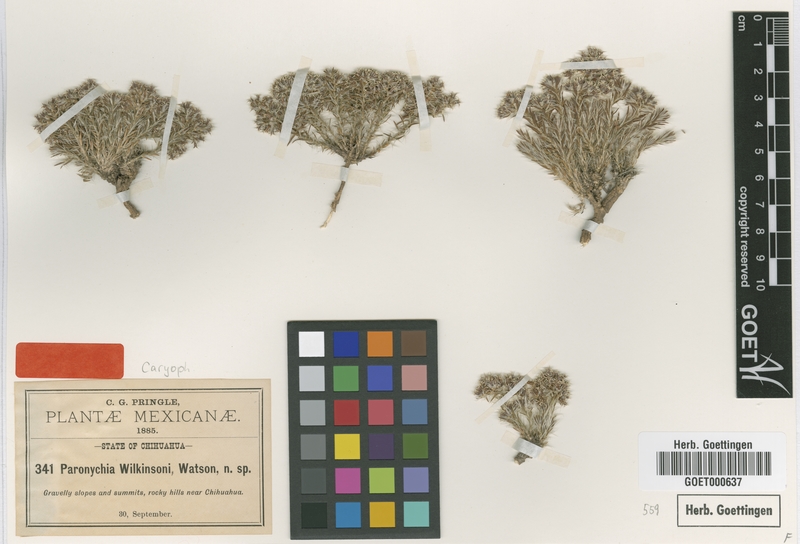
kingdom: Plantae
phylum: Tracheophyta
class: Magnoliopsida
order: Caryophyllales
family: Caryophyllaceae
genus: Paronychia
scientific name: Paronychia wilkinsonii
